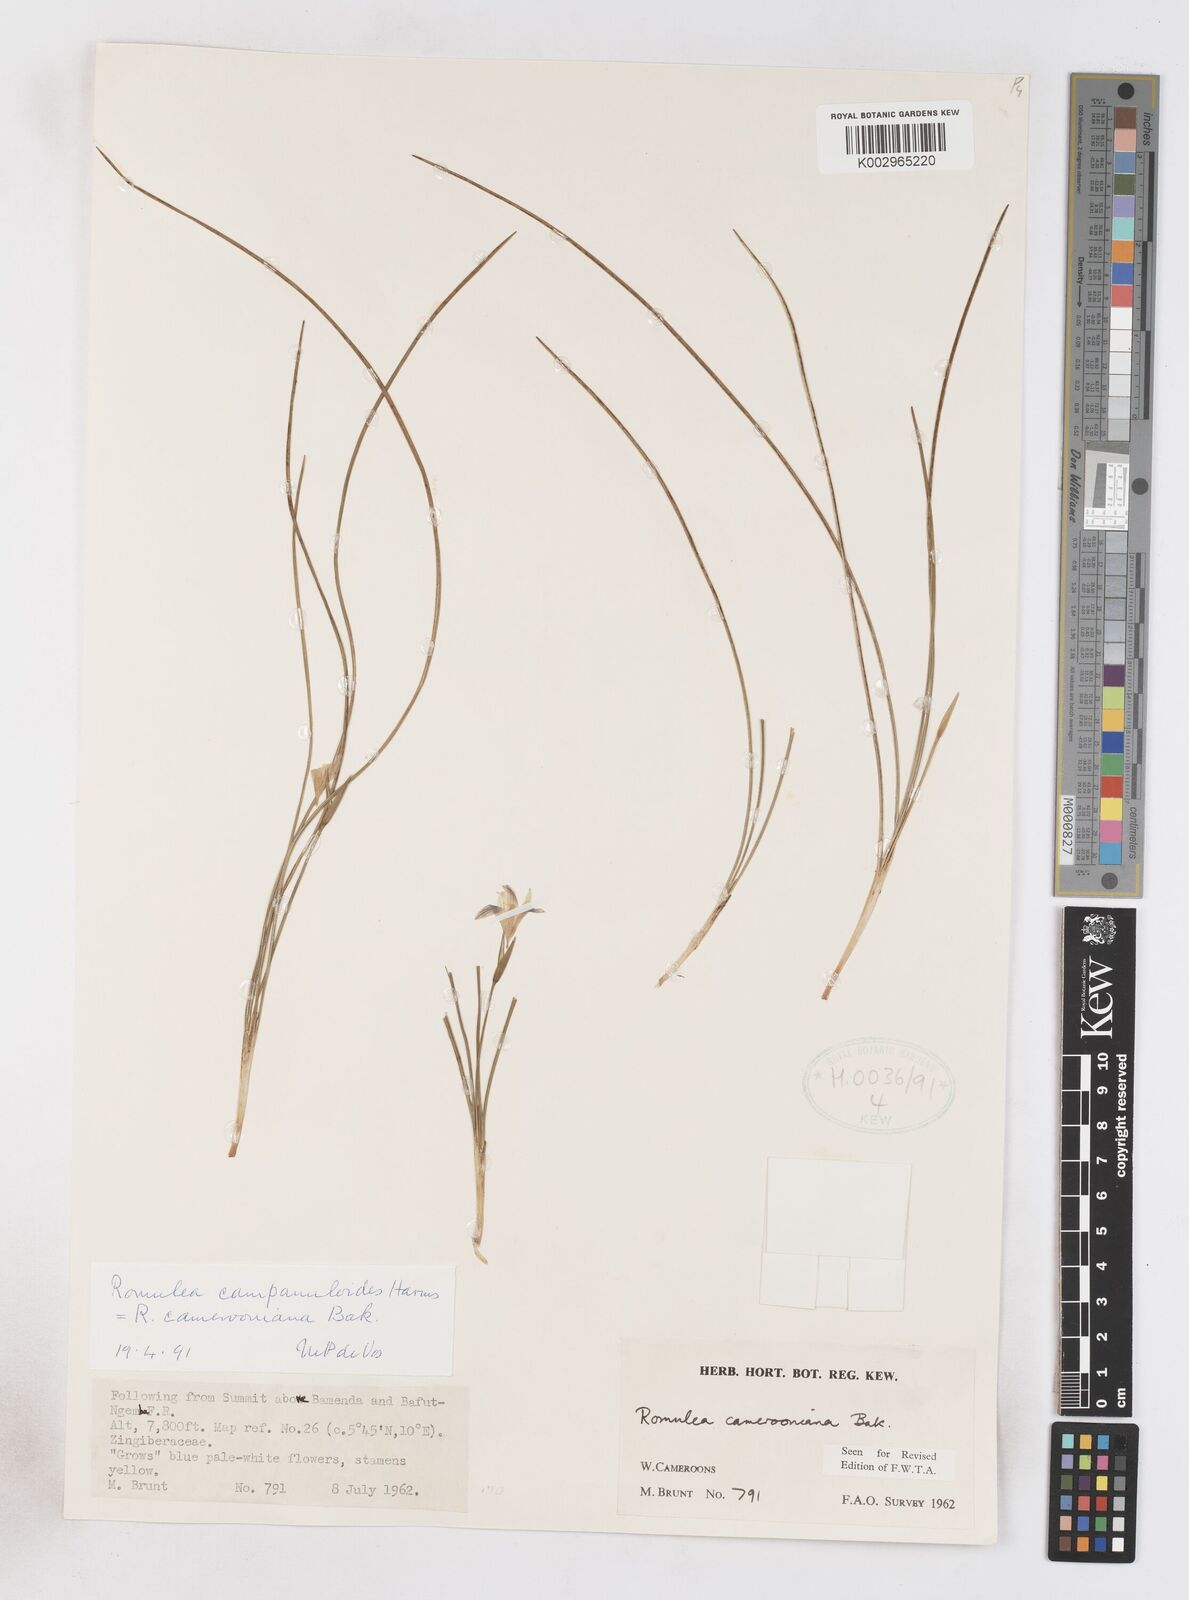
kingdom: Plantae
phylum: Tracheophyta
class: Liliopsida
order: Asparagales
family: Iridaceae
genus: Romulea
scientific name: Romulea camerooniana
